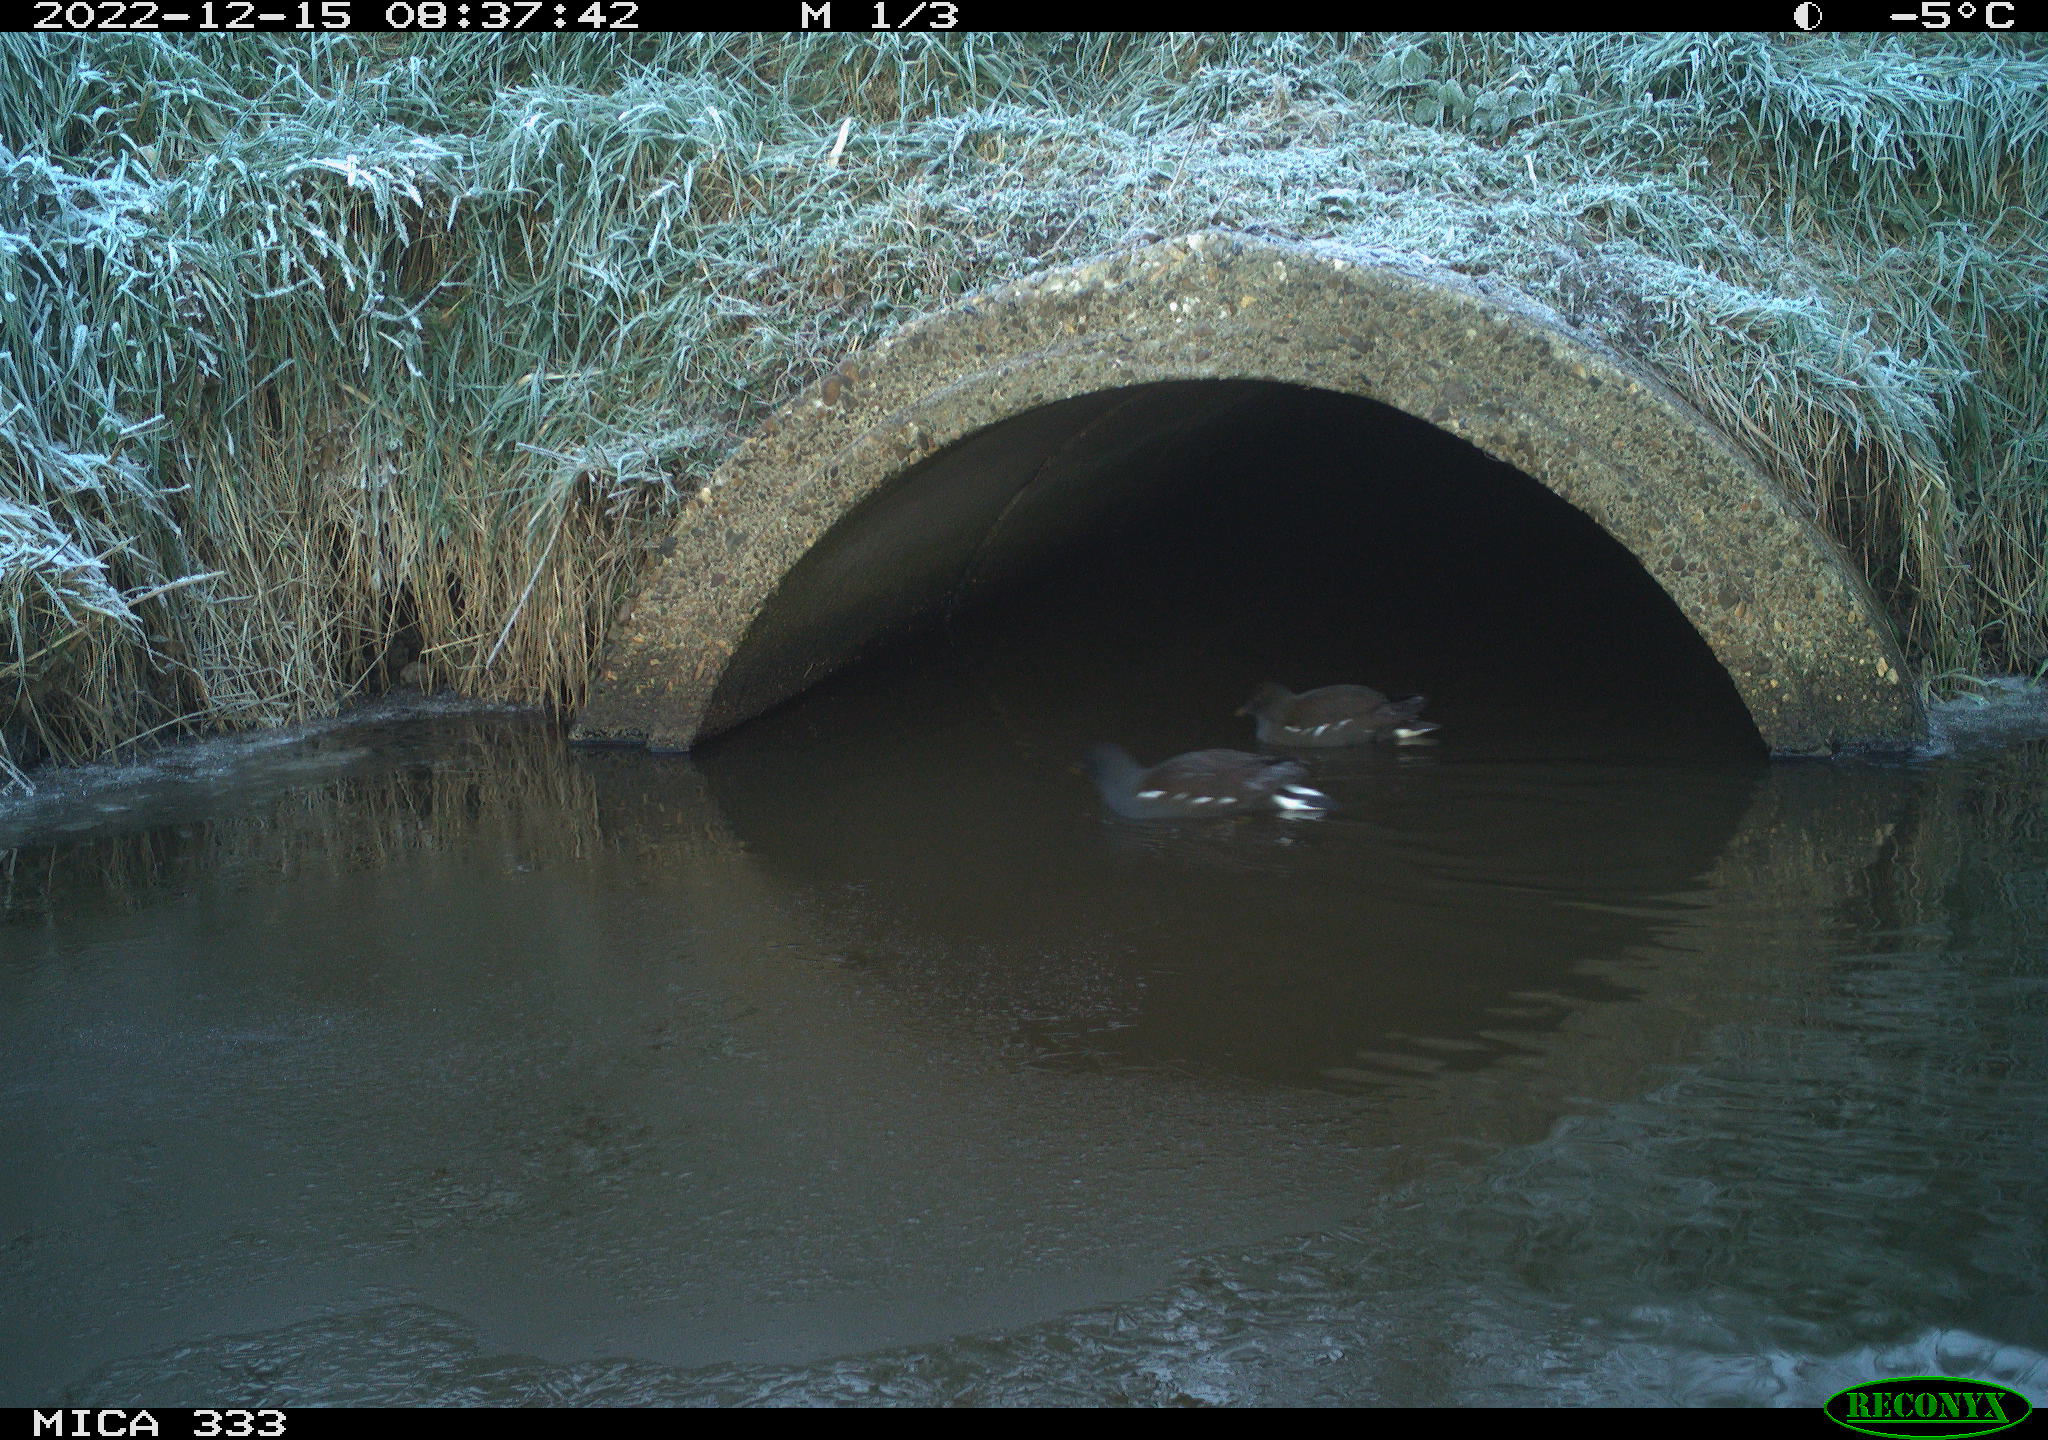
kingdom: Animalia
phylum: Chordata
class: Aves
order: Gruiformes
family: Rallidae
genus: Gallinula
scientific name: Gallinula chloropus
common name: Common moorhen
